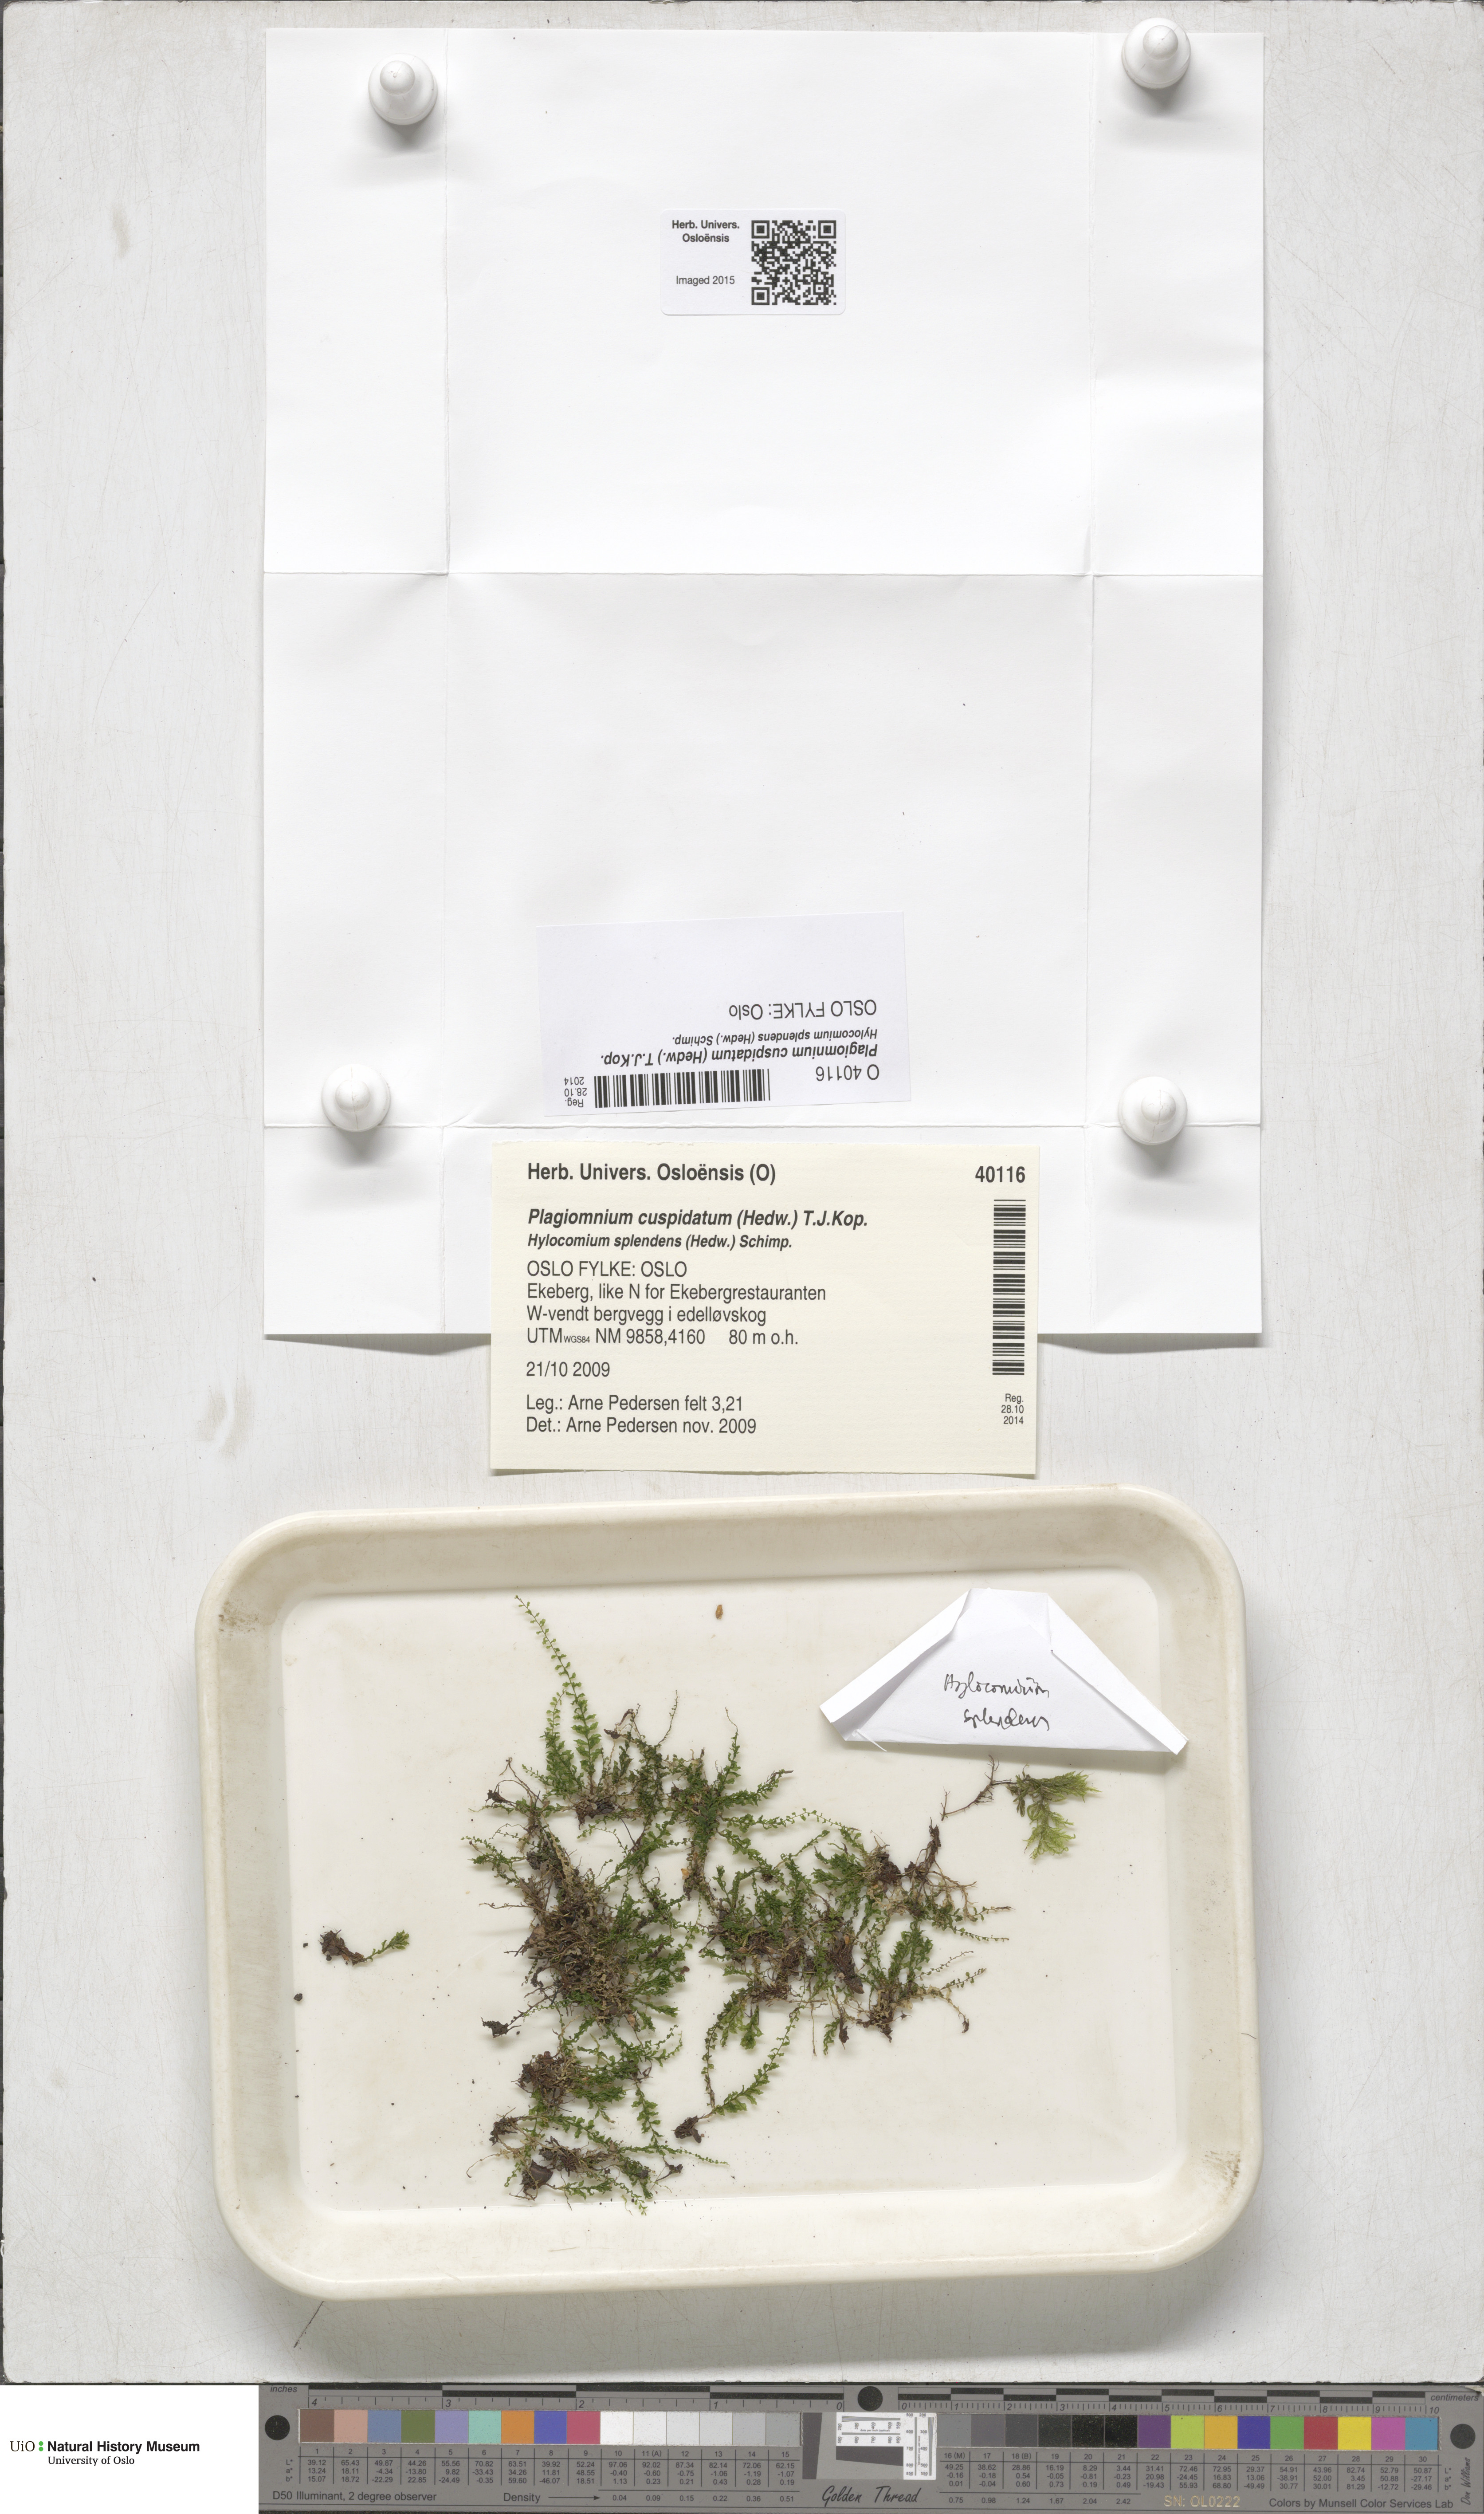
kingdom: Plantae
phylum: Bryophyta
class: Bryopsida
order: Bryales
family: Mniaceae
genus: Plagiomnium
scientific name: Plagiomnium cuspidatum
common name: Woodsy leafy moss
